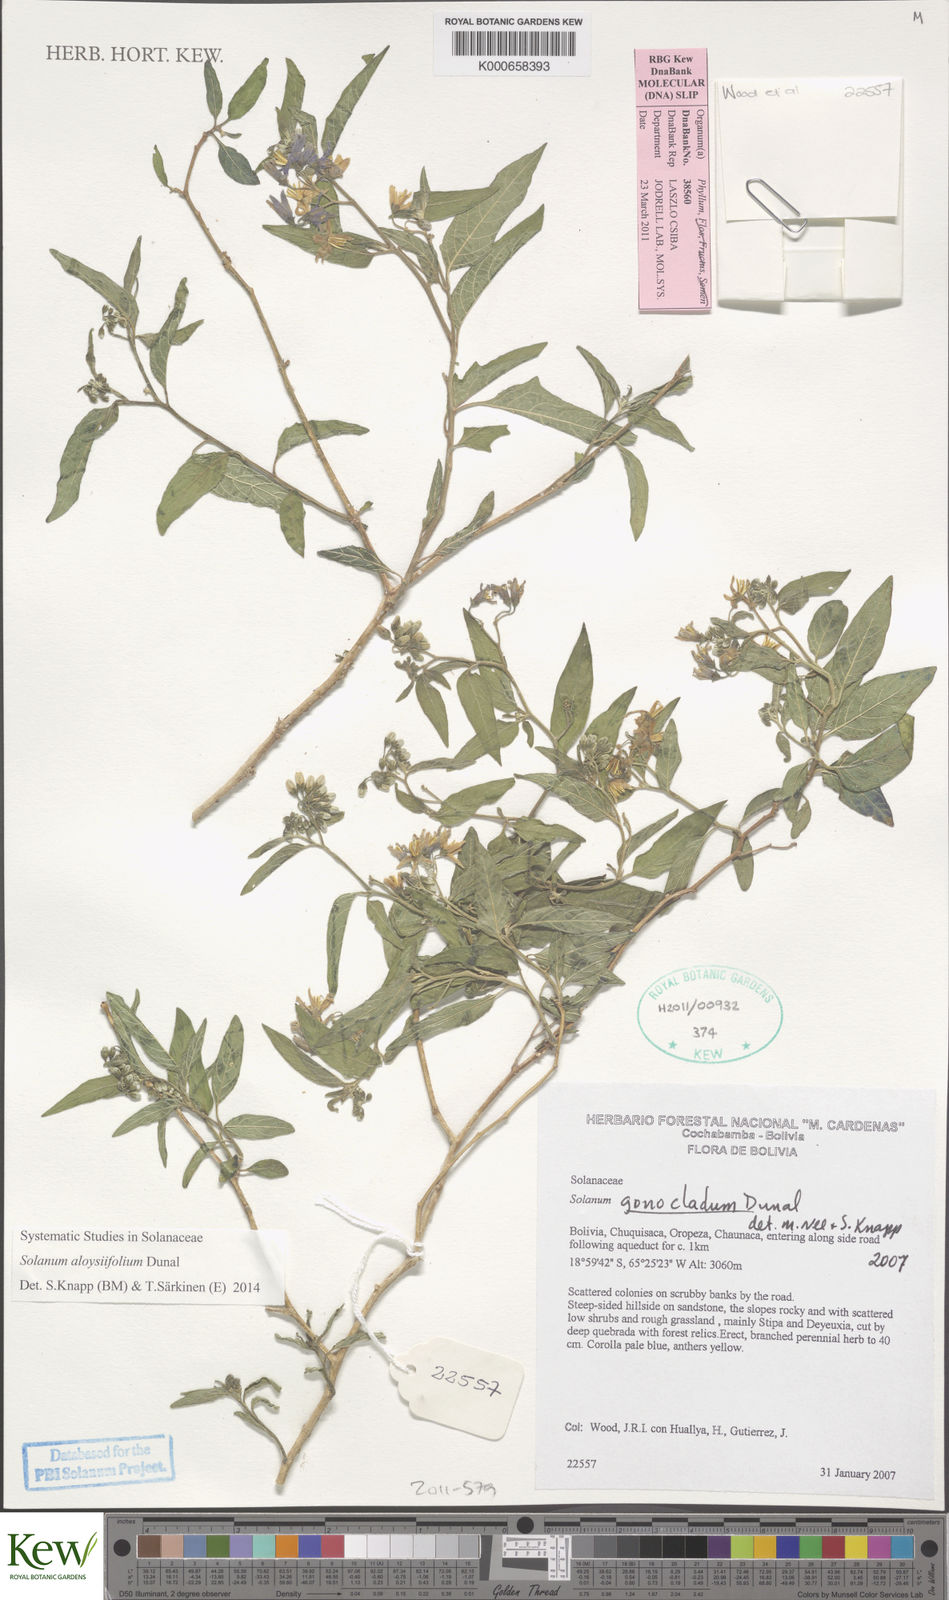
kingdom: Plantae
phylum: Tracheophyta
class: Magnoliopsida
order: Solanales
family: Solanaceae
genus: Solanum
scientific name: Solanum aloysiifolium
